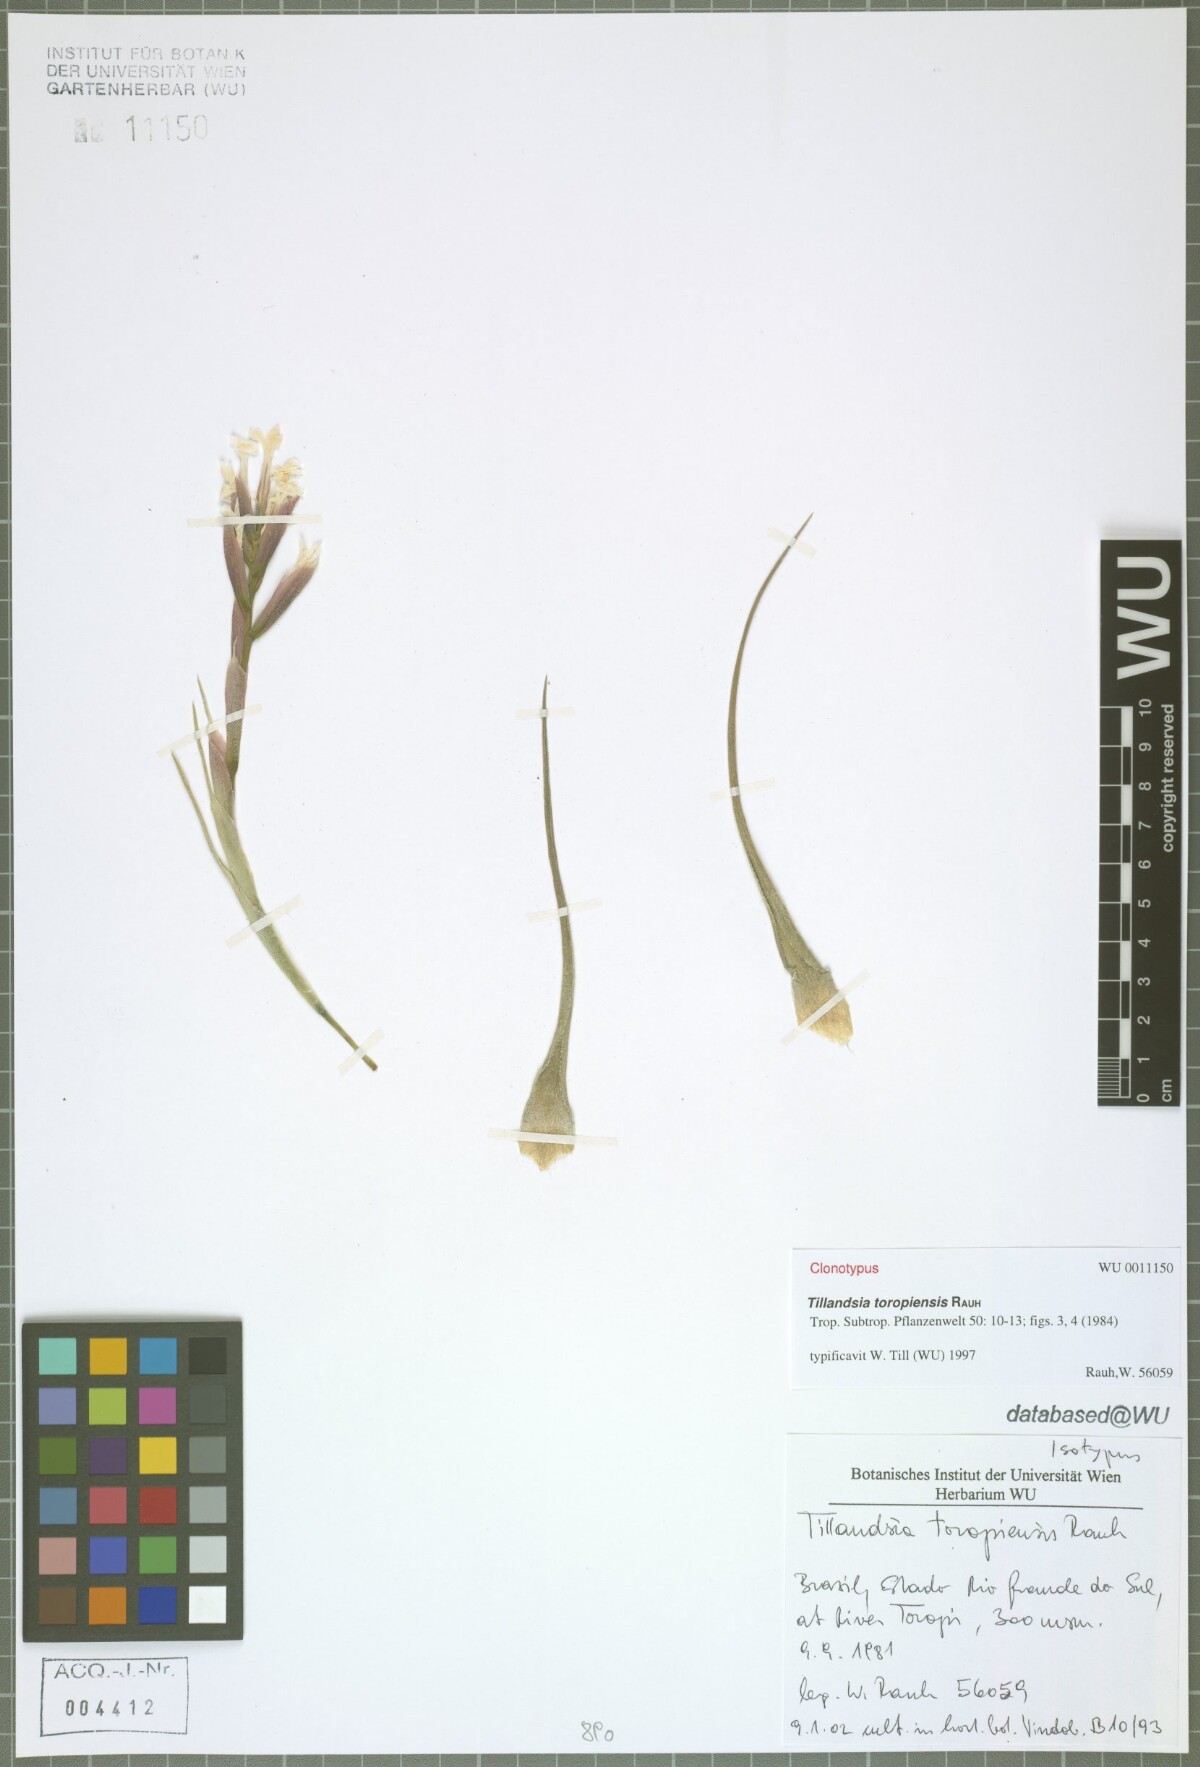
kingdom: Plantae
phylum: Tracheophyta
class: Liliopsida
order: Poales
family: Bromeliaceae
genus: Tillandsia
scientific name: Tillandsia toropiensis
